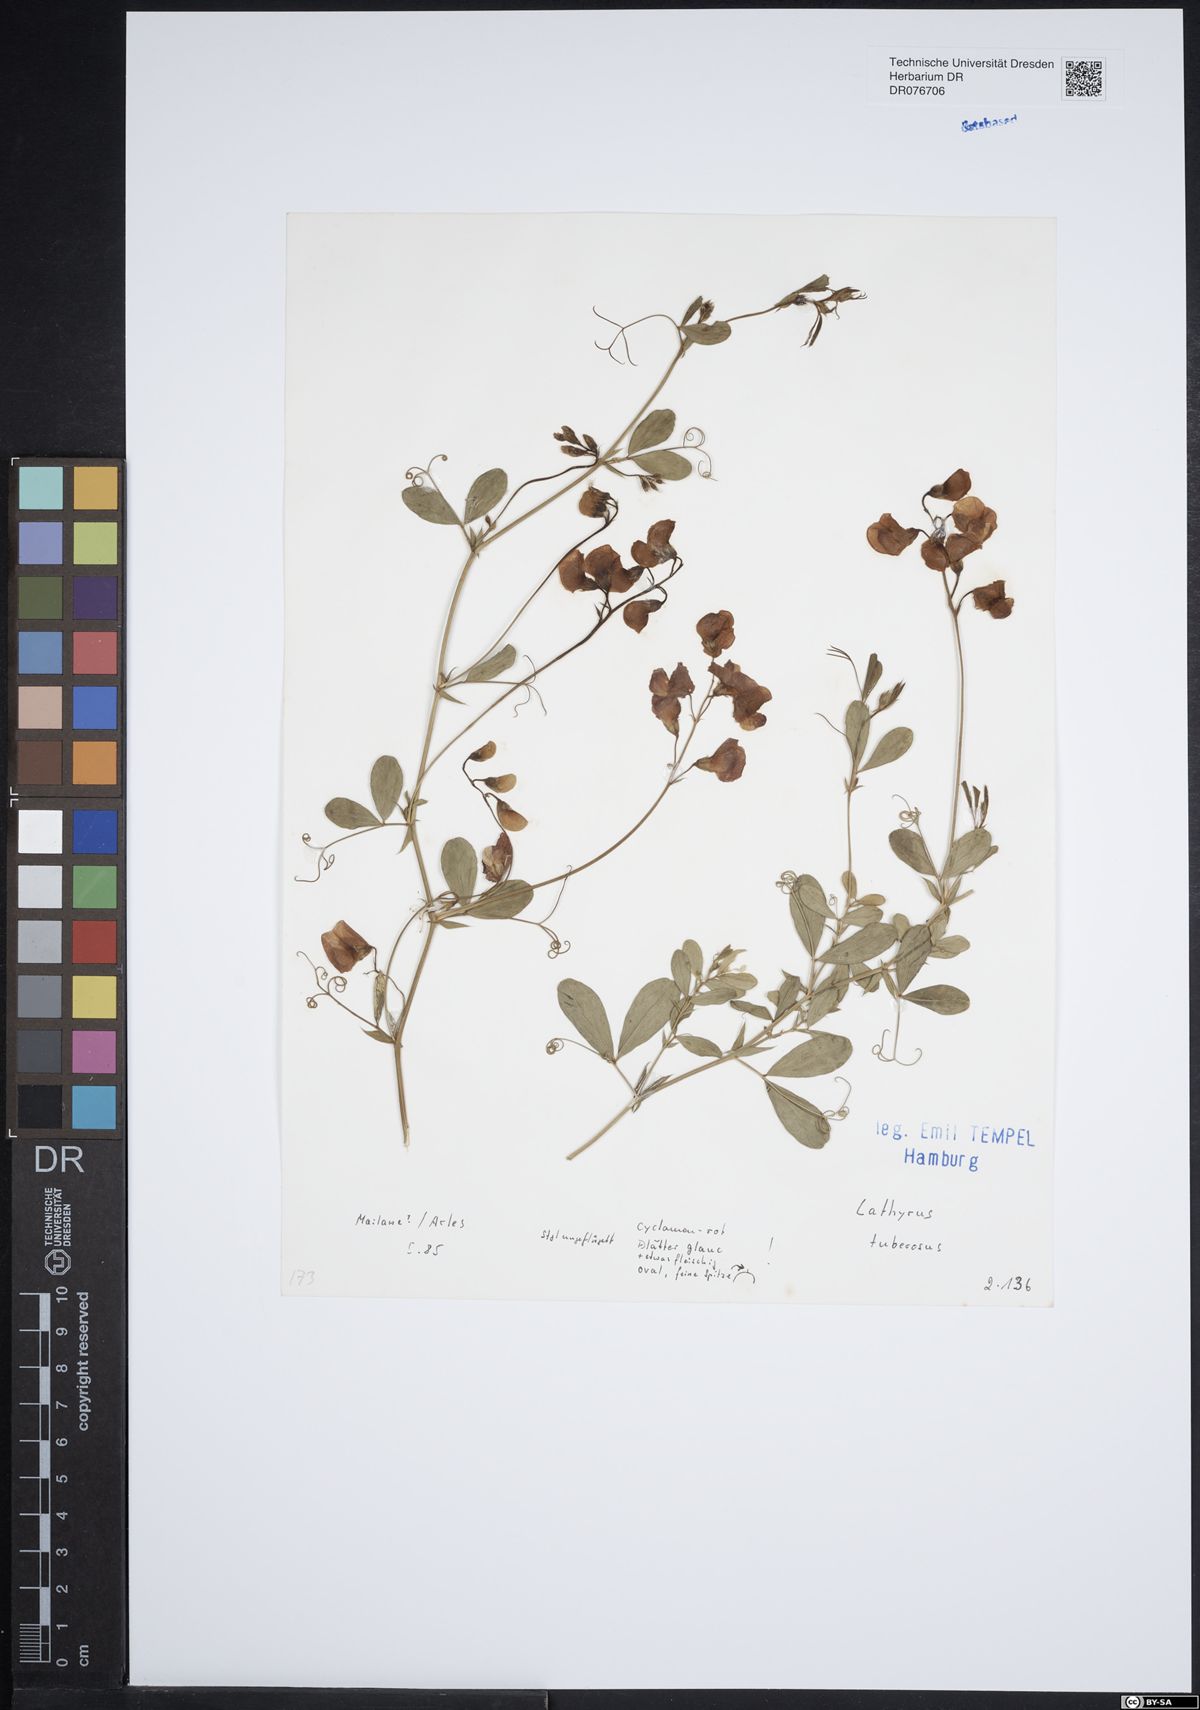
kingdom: Plantae
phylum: Tracheophyta
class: Magnoliopsida
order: Fabales
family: Fabaceae
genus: Lathyrus
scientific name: Lathyrus tuberosus
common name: Tuberous pea
